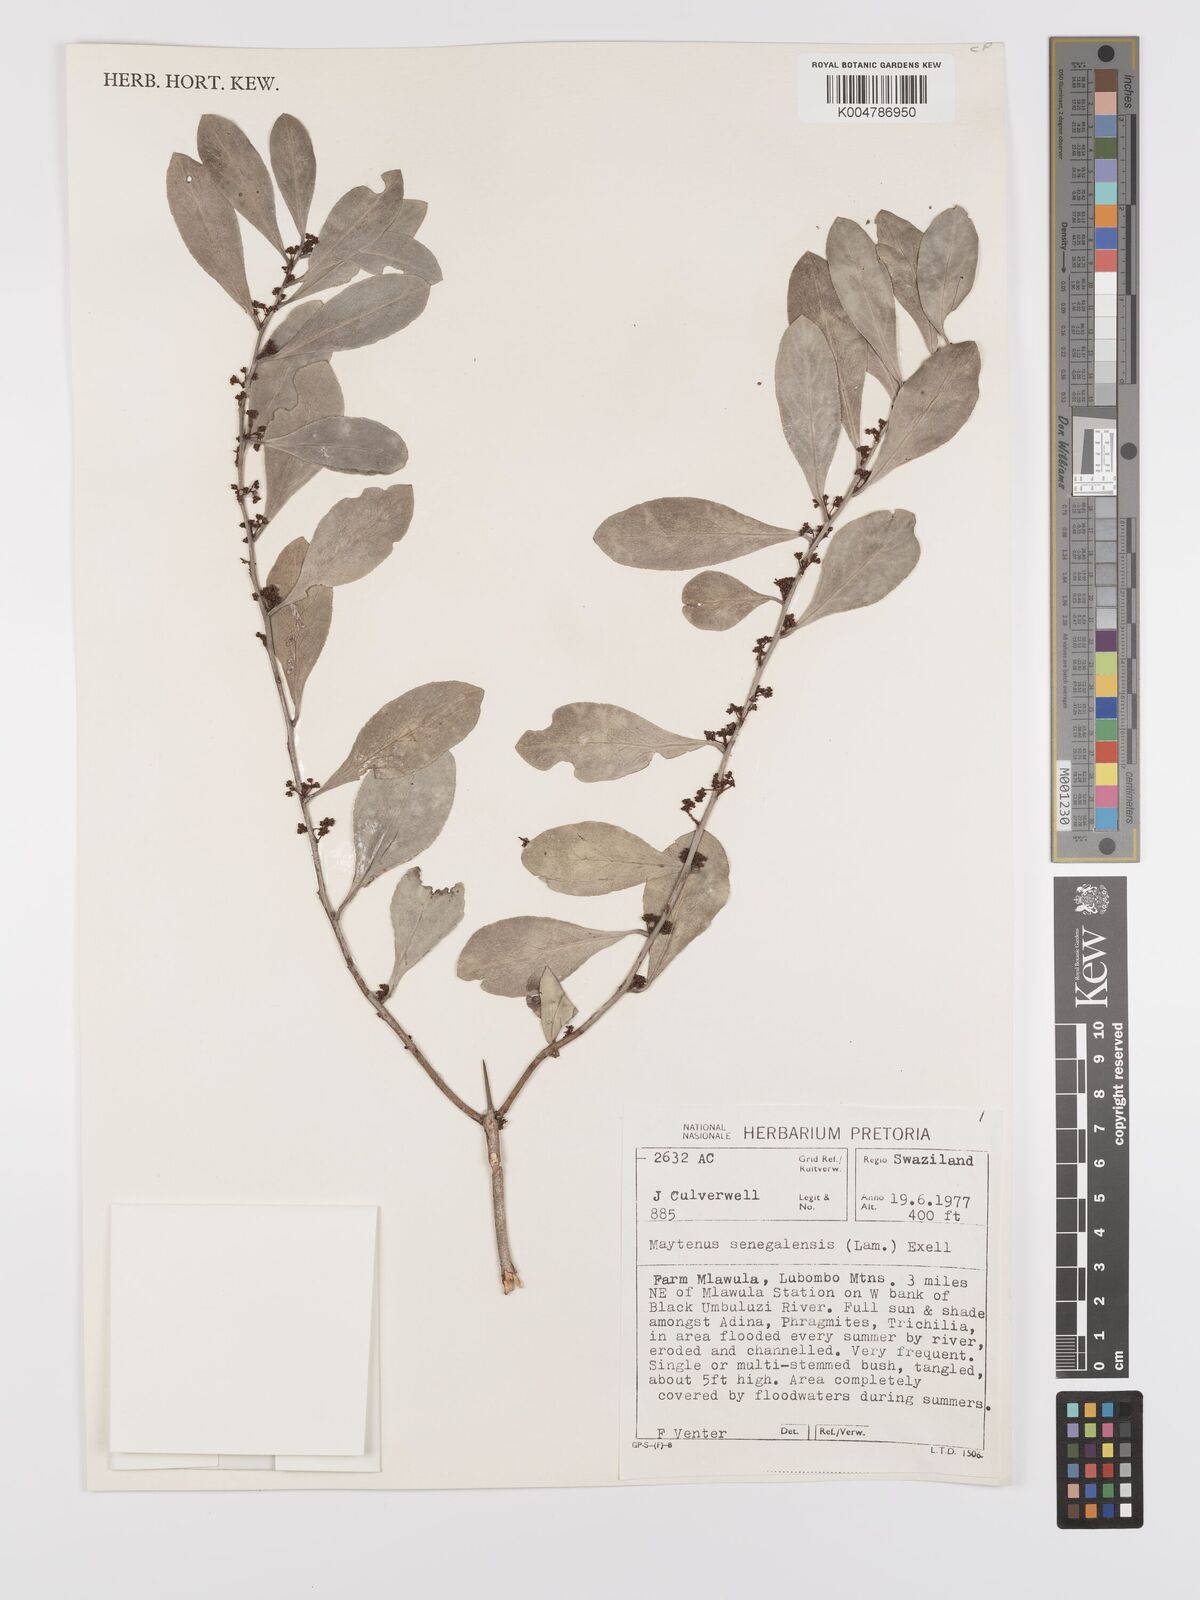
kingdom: Plantae
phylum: Tracheophyta
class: Magnoliopsida
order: Celastrales
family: Celastraceae
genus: Gymnosporia
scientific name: Gymnosporia senegalensis
